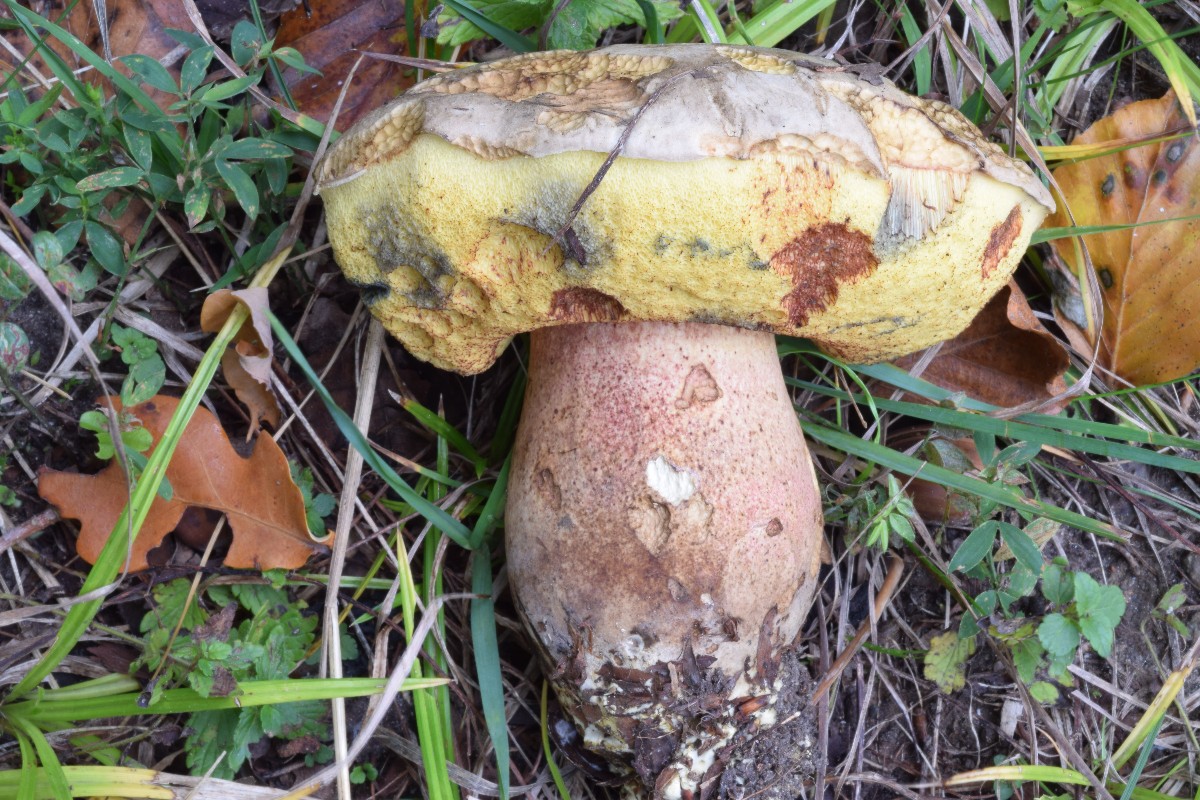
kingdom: Fungi
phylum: Basidiomycota
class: Agaricomycetes
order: Boletales
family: Boletaceae
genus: Caloboletus
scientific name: Caloboletus radicans
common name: rod-rørhat
